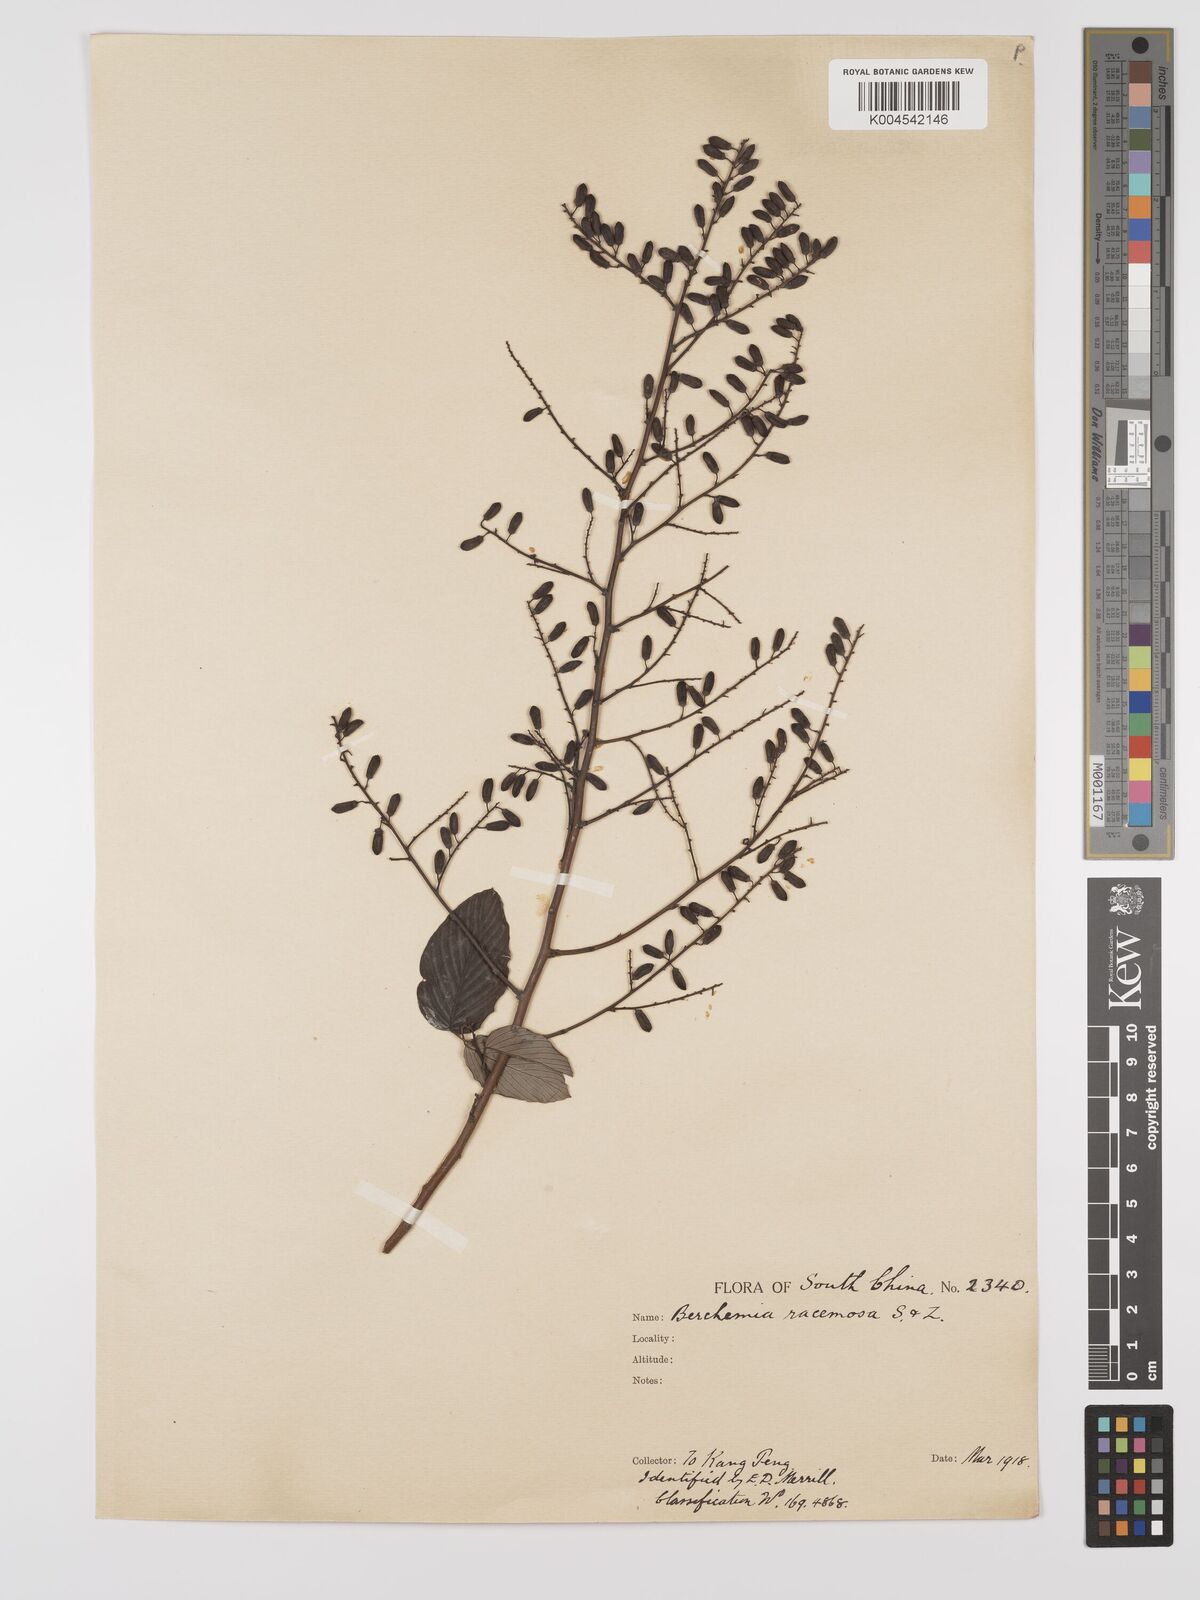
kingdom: Plantae
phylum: Tracheophyta
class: Magnoliopsida
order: Rosales
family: Rhamnaceae
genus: Berchemia
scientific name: Berchemia floribunda
